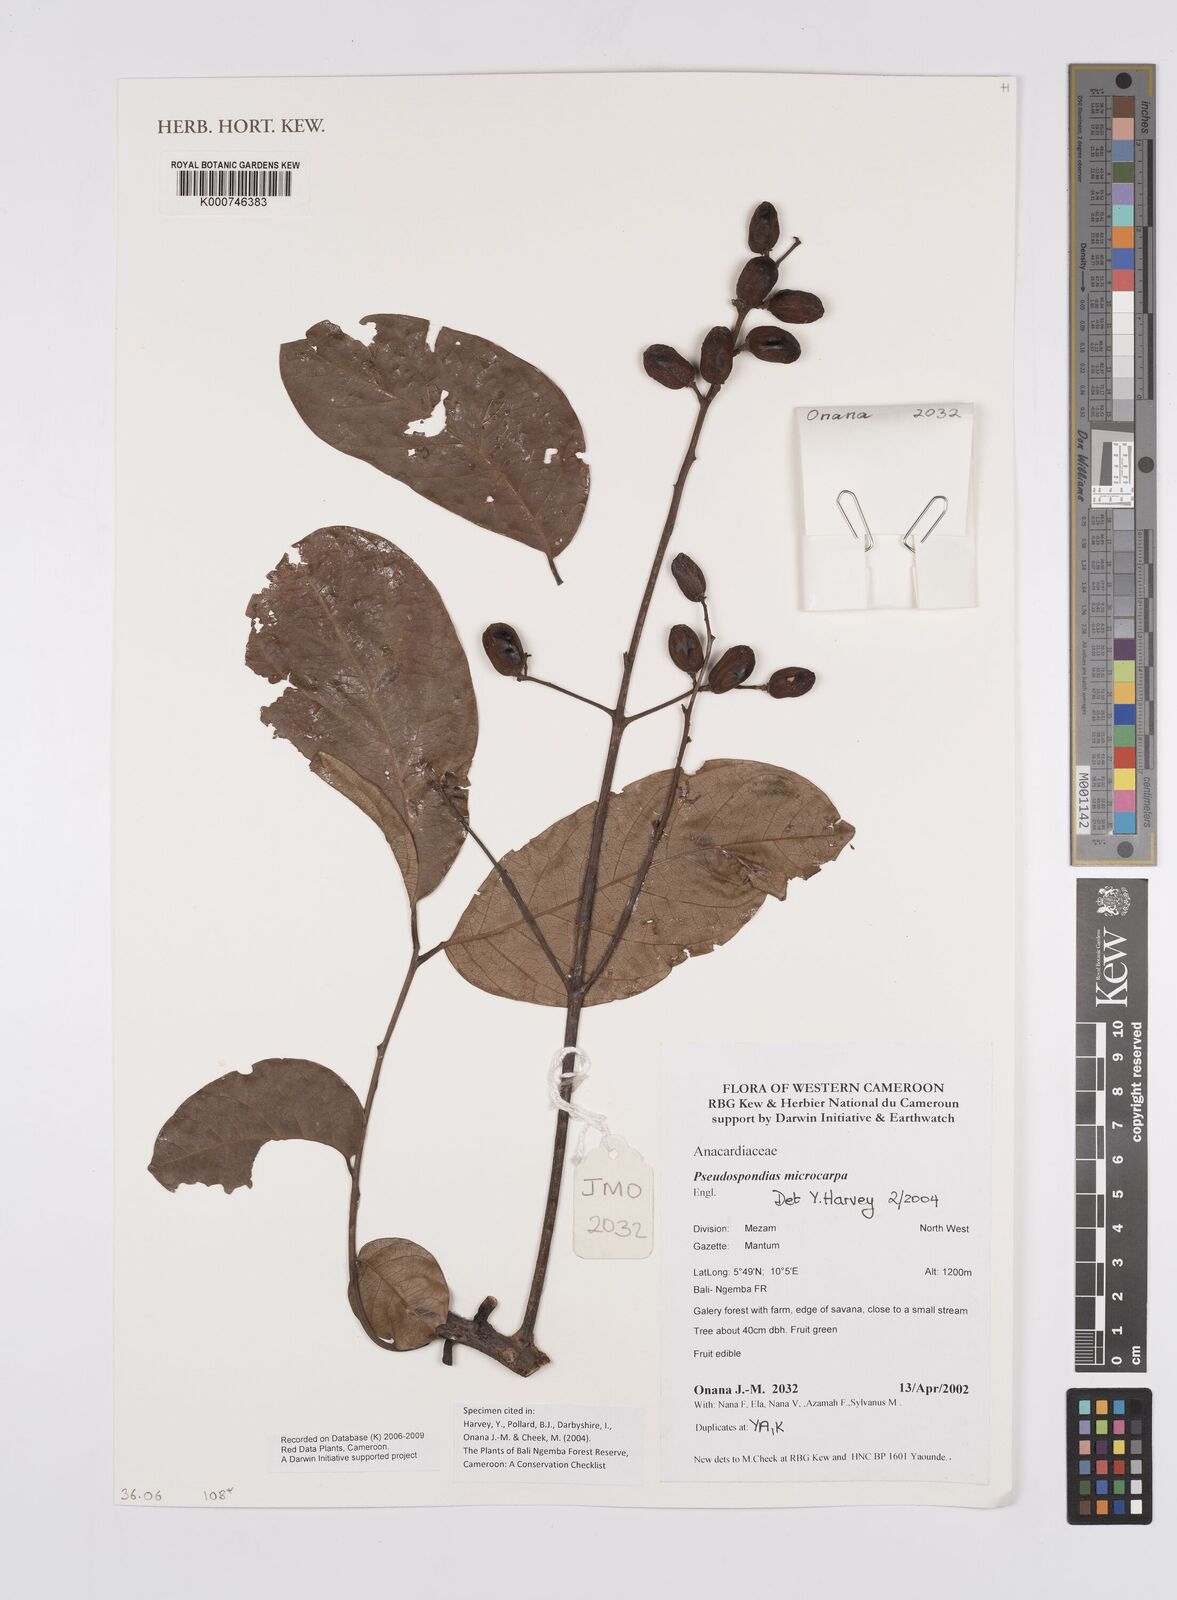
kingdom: Plantae
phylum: Tracheophyta
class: Magnoliopsida
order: Sapindales
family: Anacardiaceae
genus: Pseudospondias
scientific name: Pseudospondias microcarpa
